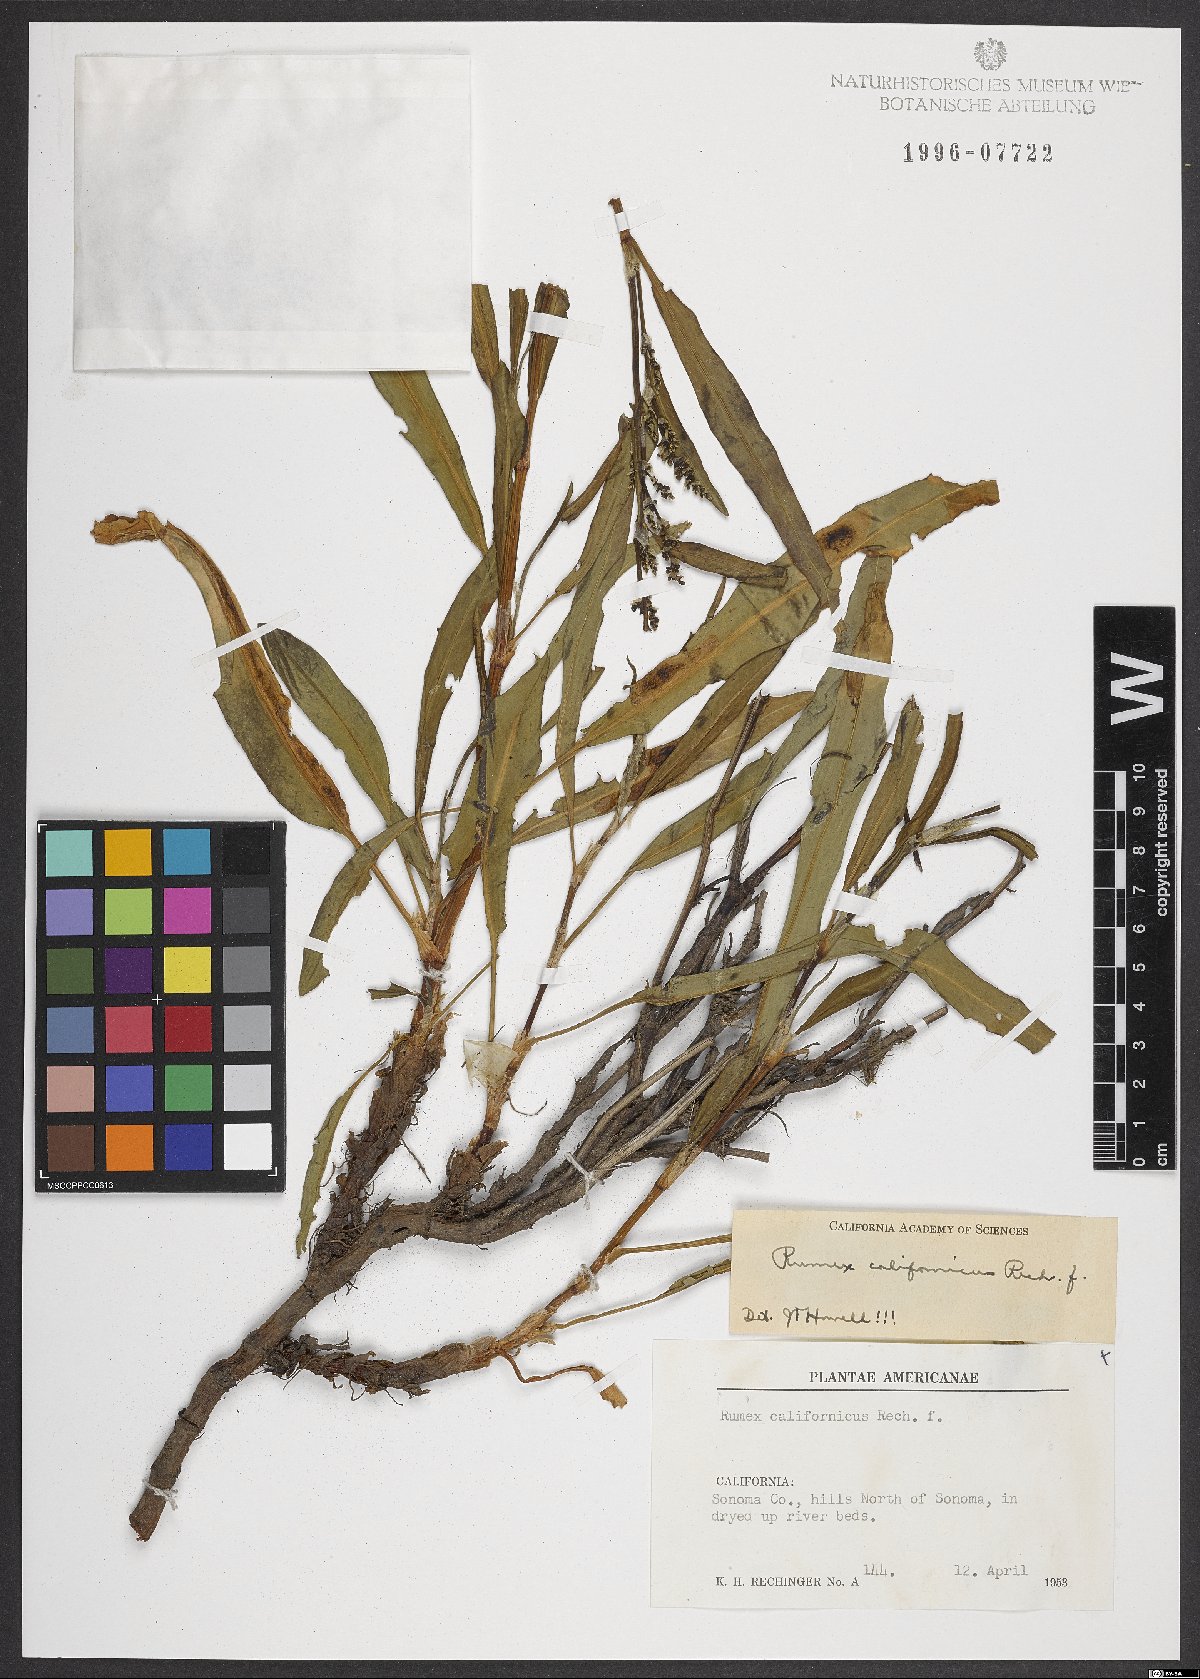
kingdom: Plantae
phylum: Tracheophyta
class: Magnoliopsida
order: Caryophyllales
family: Polygonaceae
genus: Rumex
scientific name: Rumex californicus
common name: California willow dock
